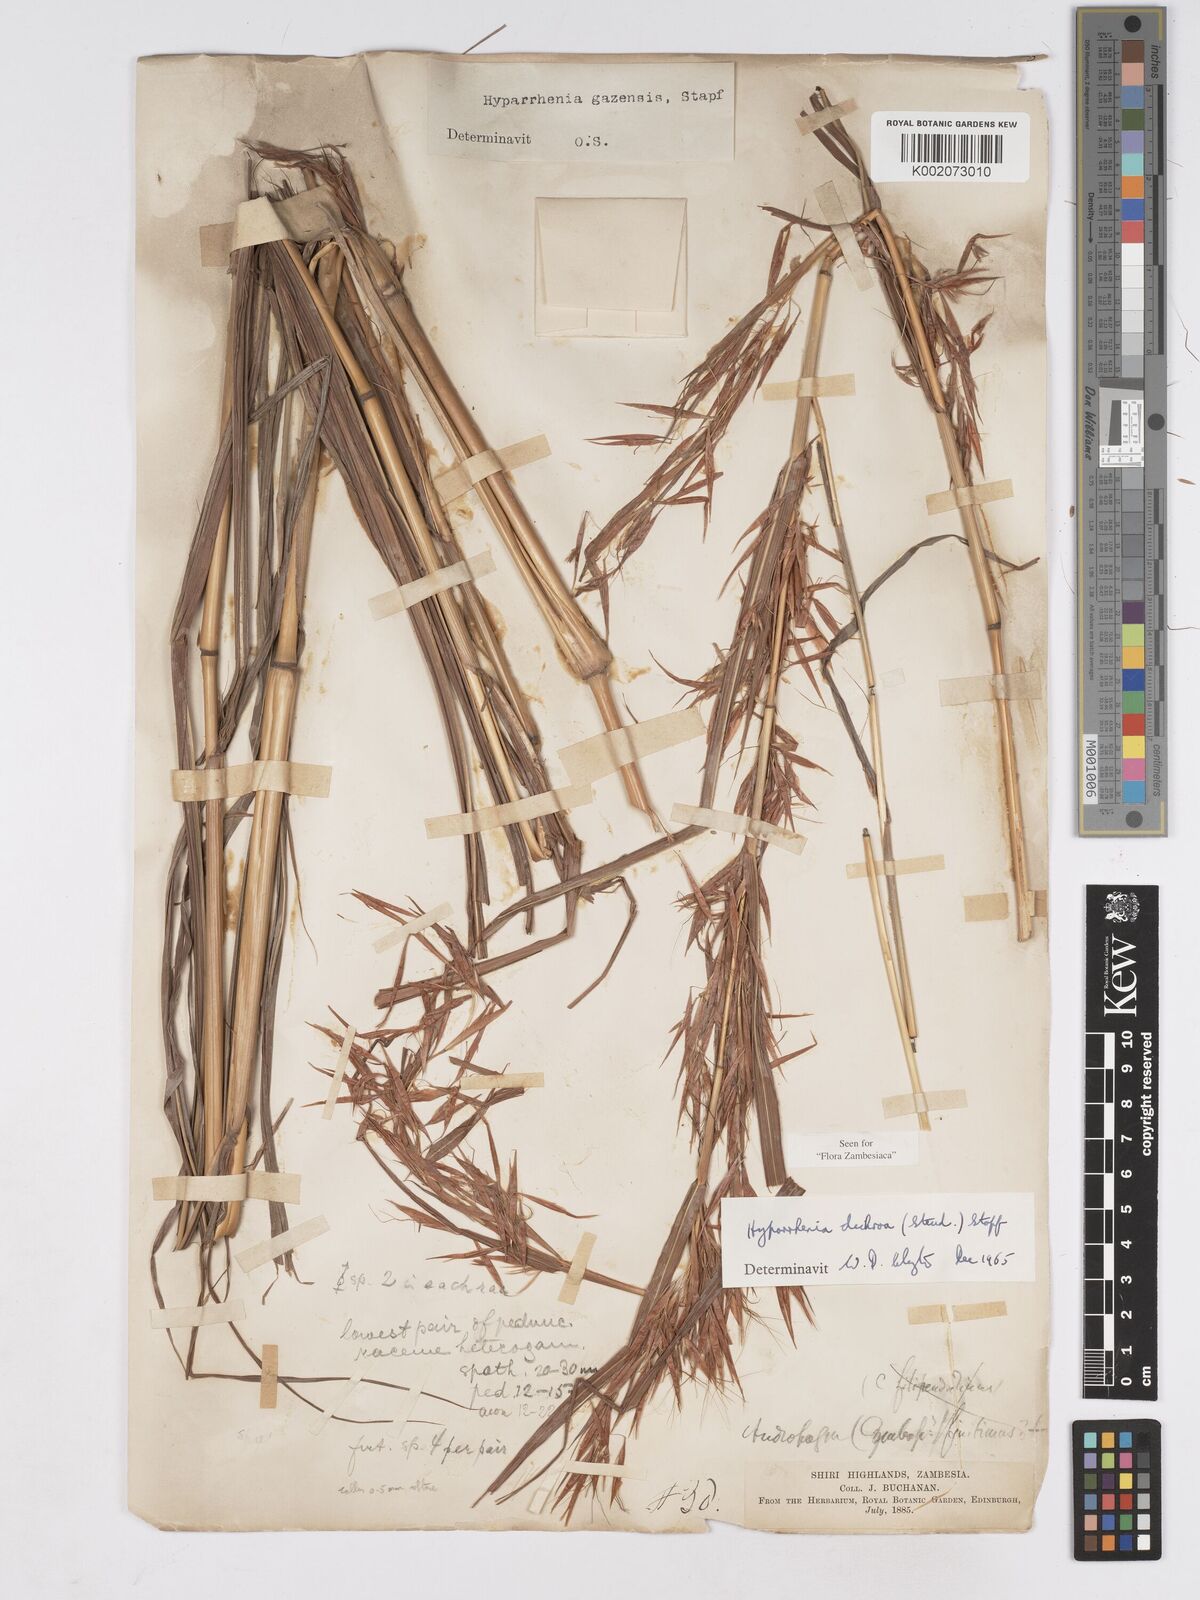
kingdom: Plantae
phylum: Tracheophyta
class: Liliopsida
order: Poales
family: Poaceae
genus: Hyparrhenia
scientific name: Hyparrhenia dichroa
